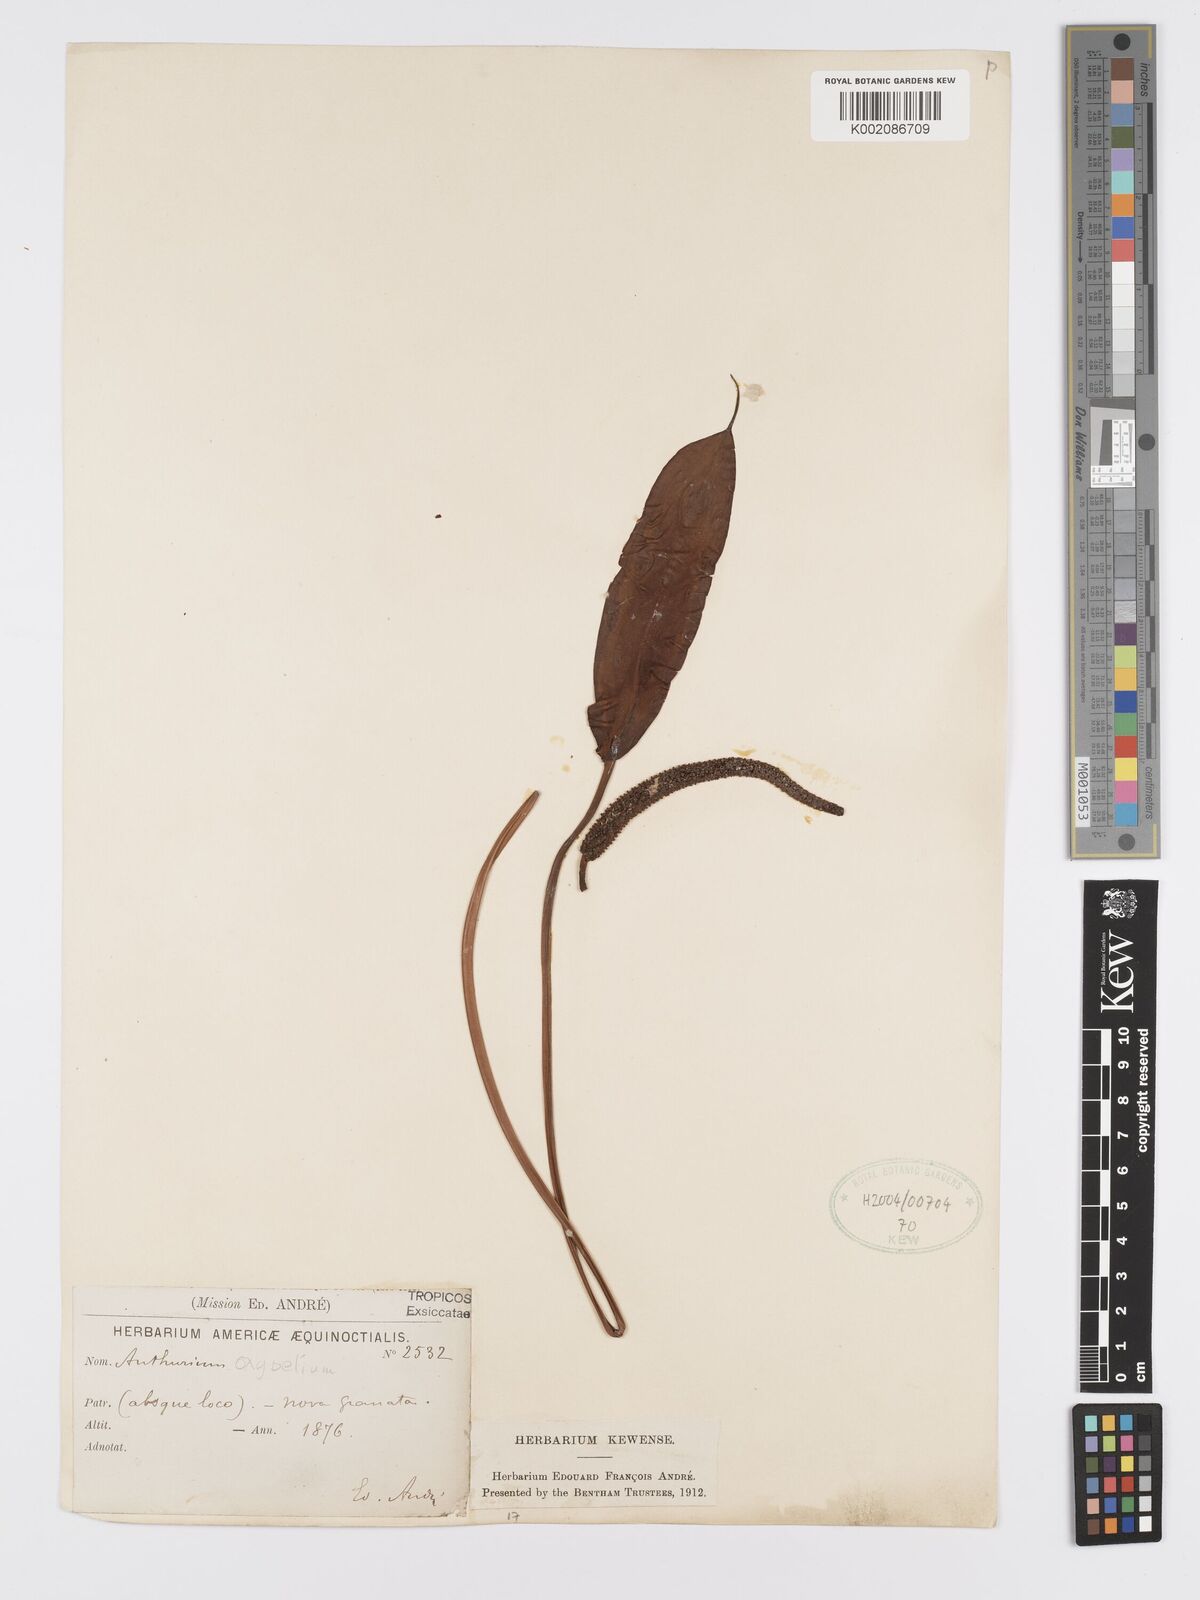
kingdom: Plantae
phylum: Tracheophyta
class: Liliopsida
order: Alismatales
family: Araceae
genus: Anthurium
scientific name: Anthurium oxybelium
